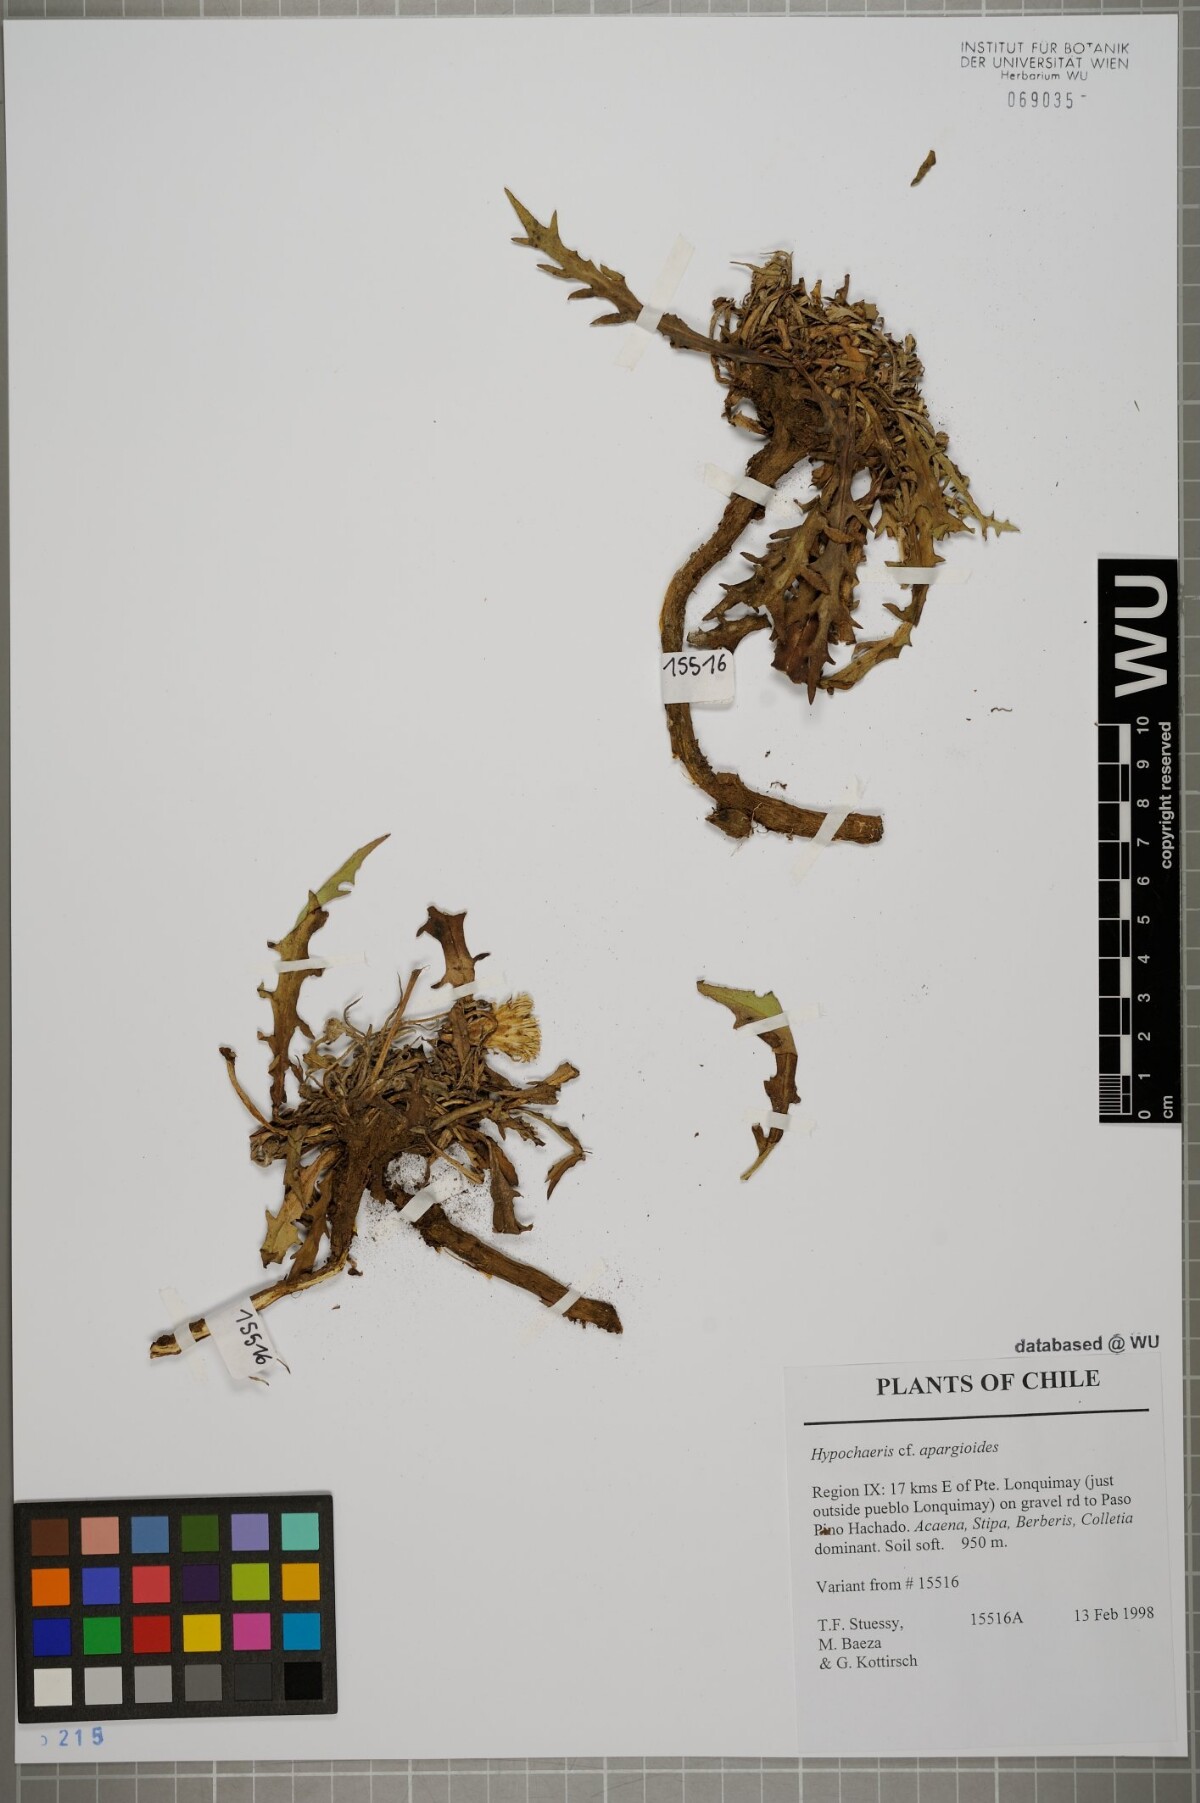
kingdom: Plantae
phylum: Tracheophyta
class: Magnoliopsida
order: Asterales
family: Asteraceae
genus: Hypochaeris
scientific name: Hypochaeris apargioides
